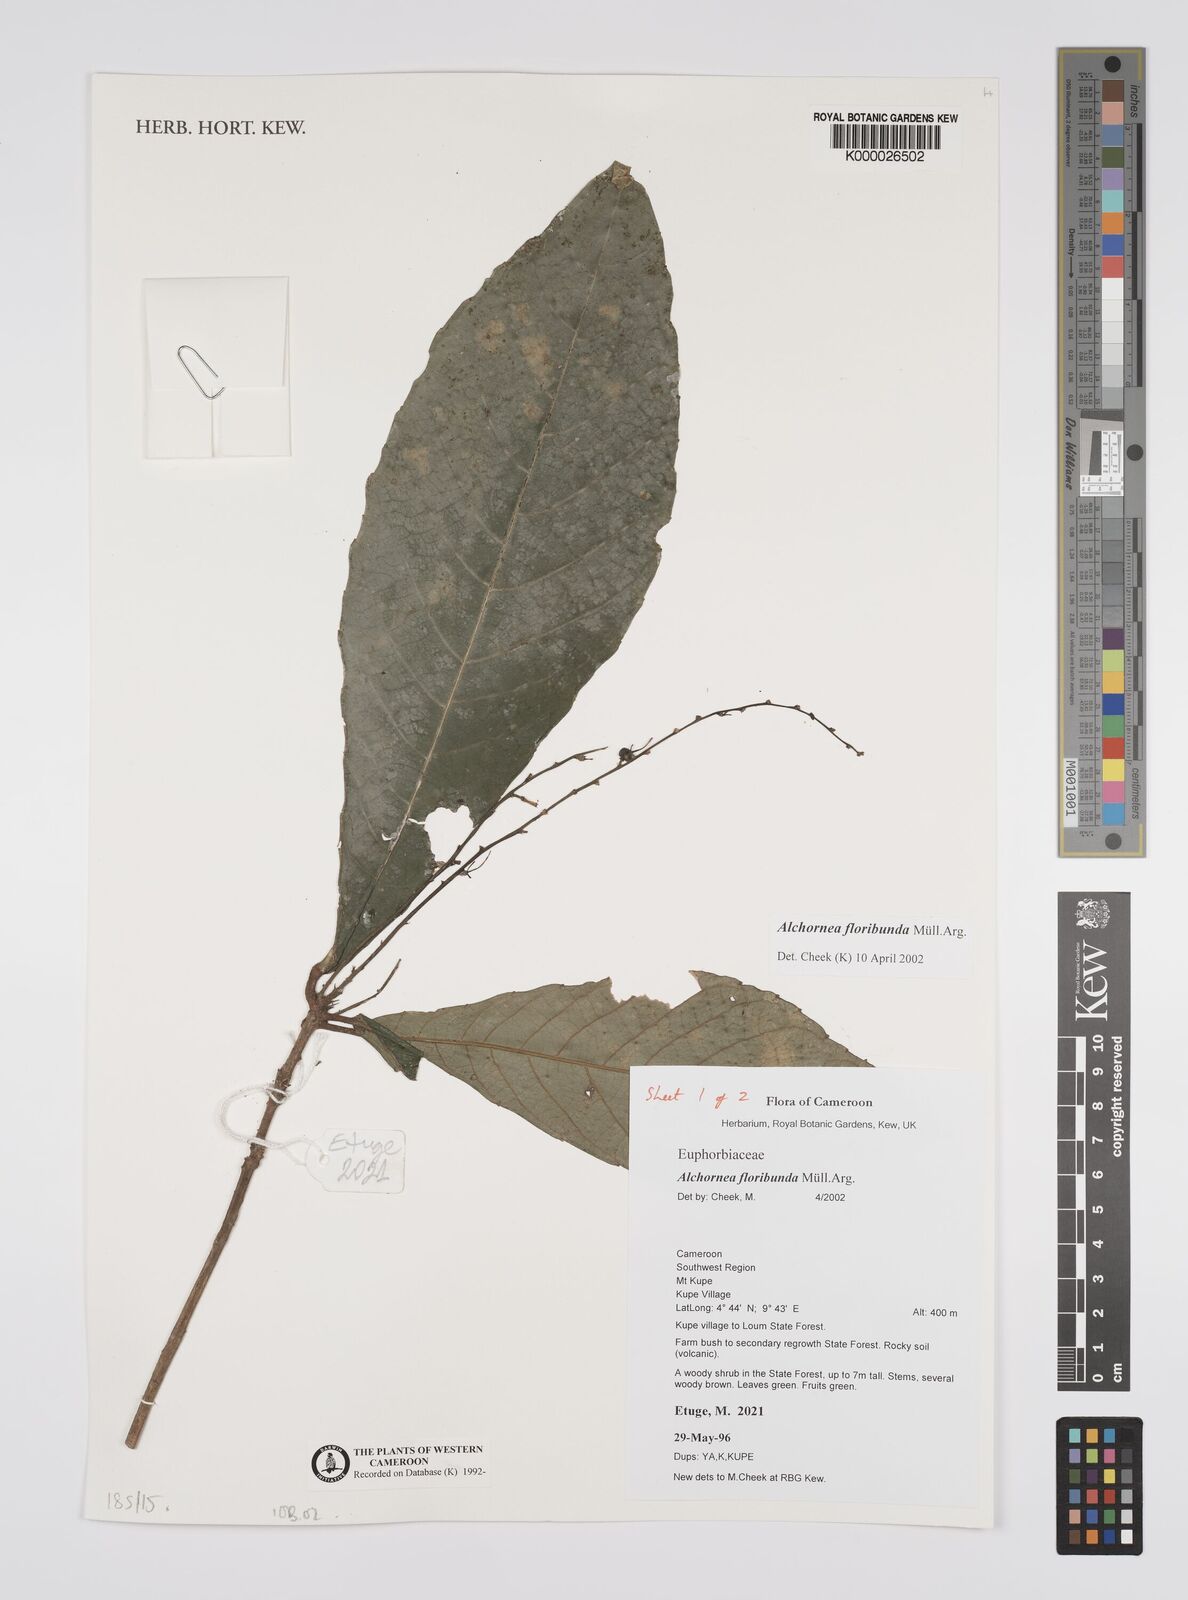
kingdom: Plantae
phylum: Tracheophyta
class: Magnoliopsida
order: Malpighiales
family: Euphorbiaceae
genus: Alchornea
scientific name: Alchornea
